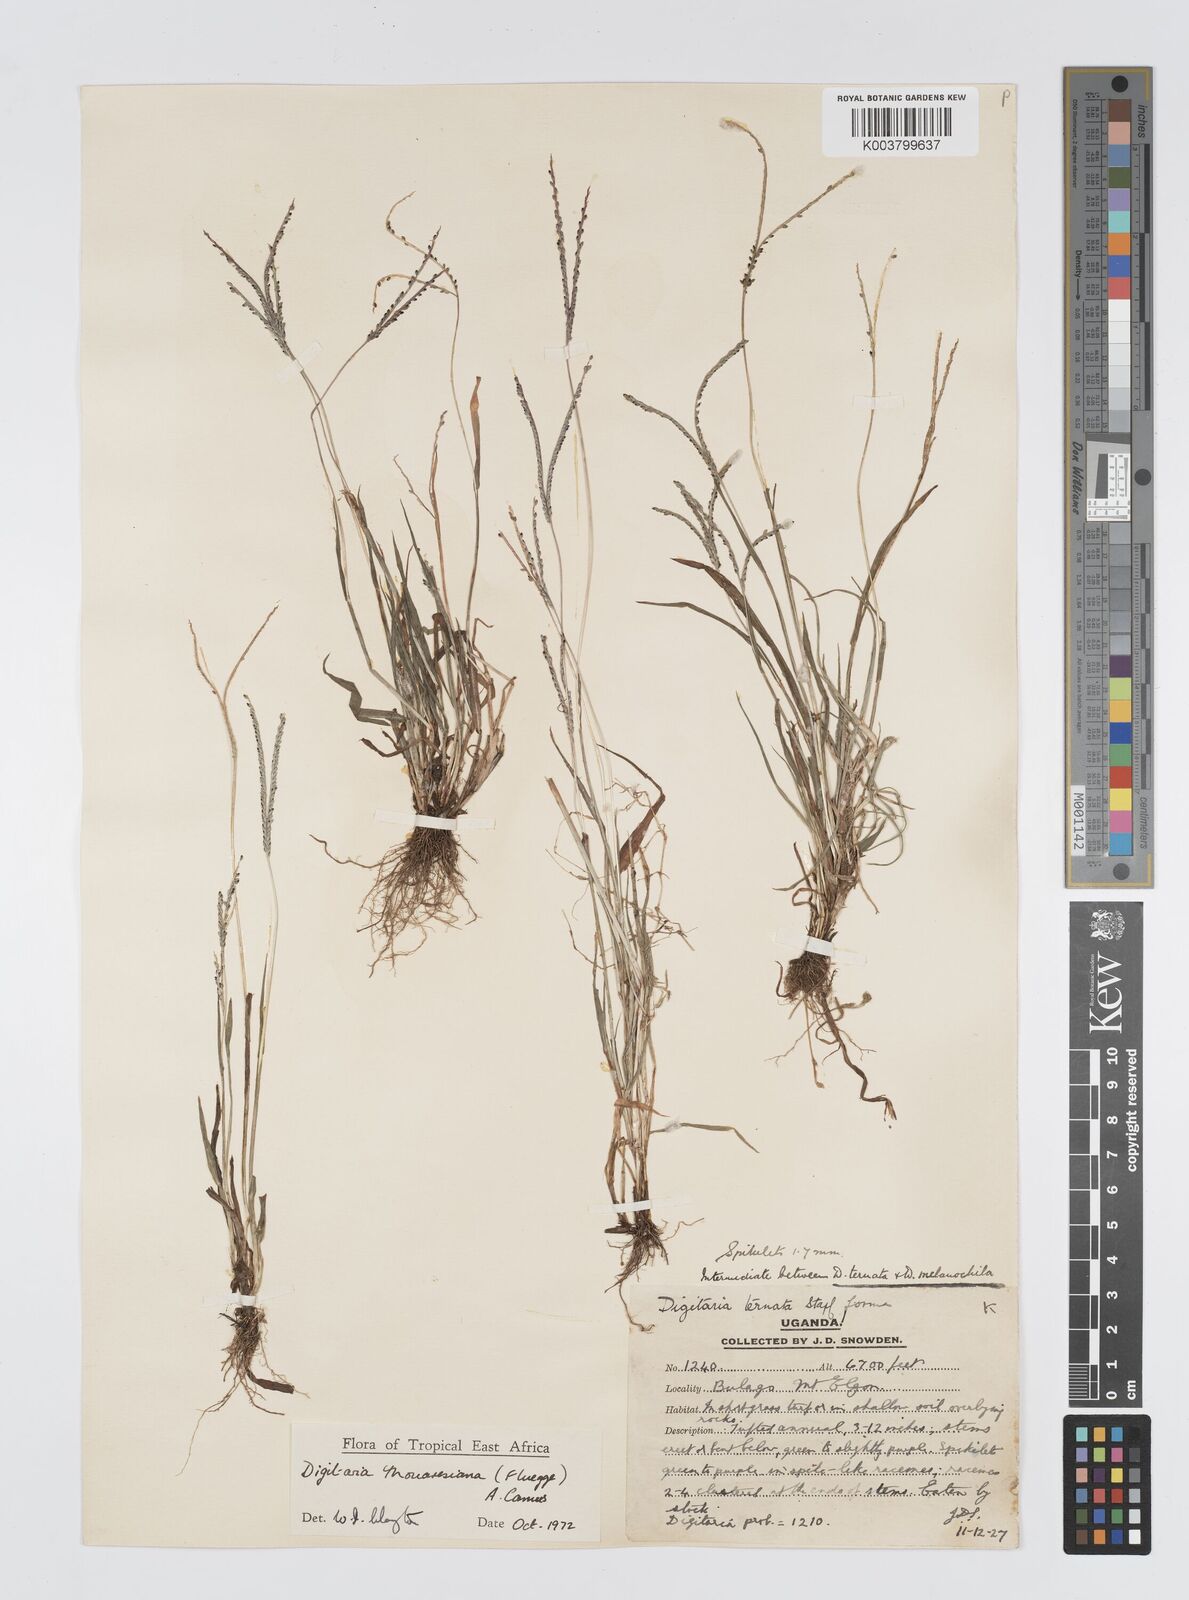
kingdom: Plantae
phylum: Tracheophyta
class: Liliopsida
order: Poales
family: Poaceae
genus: Digitaria
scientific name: Digitaria thouarsiana
